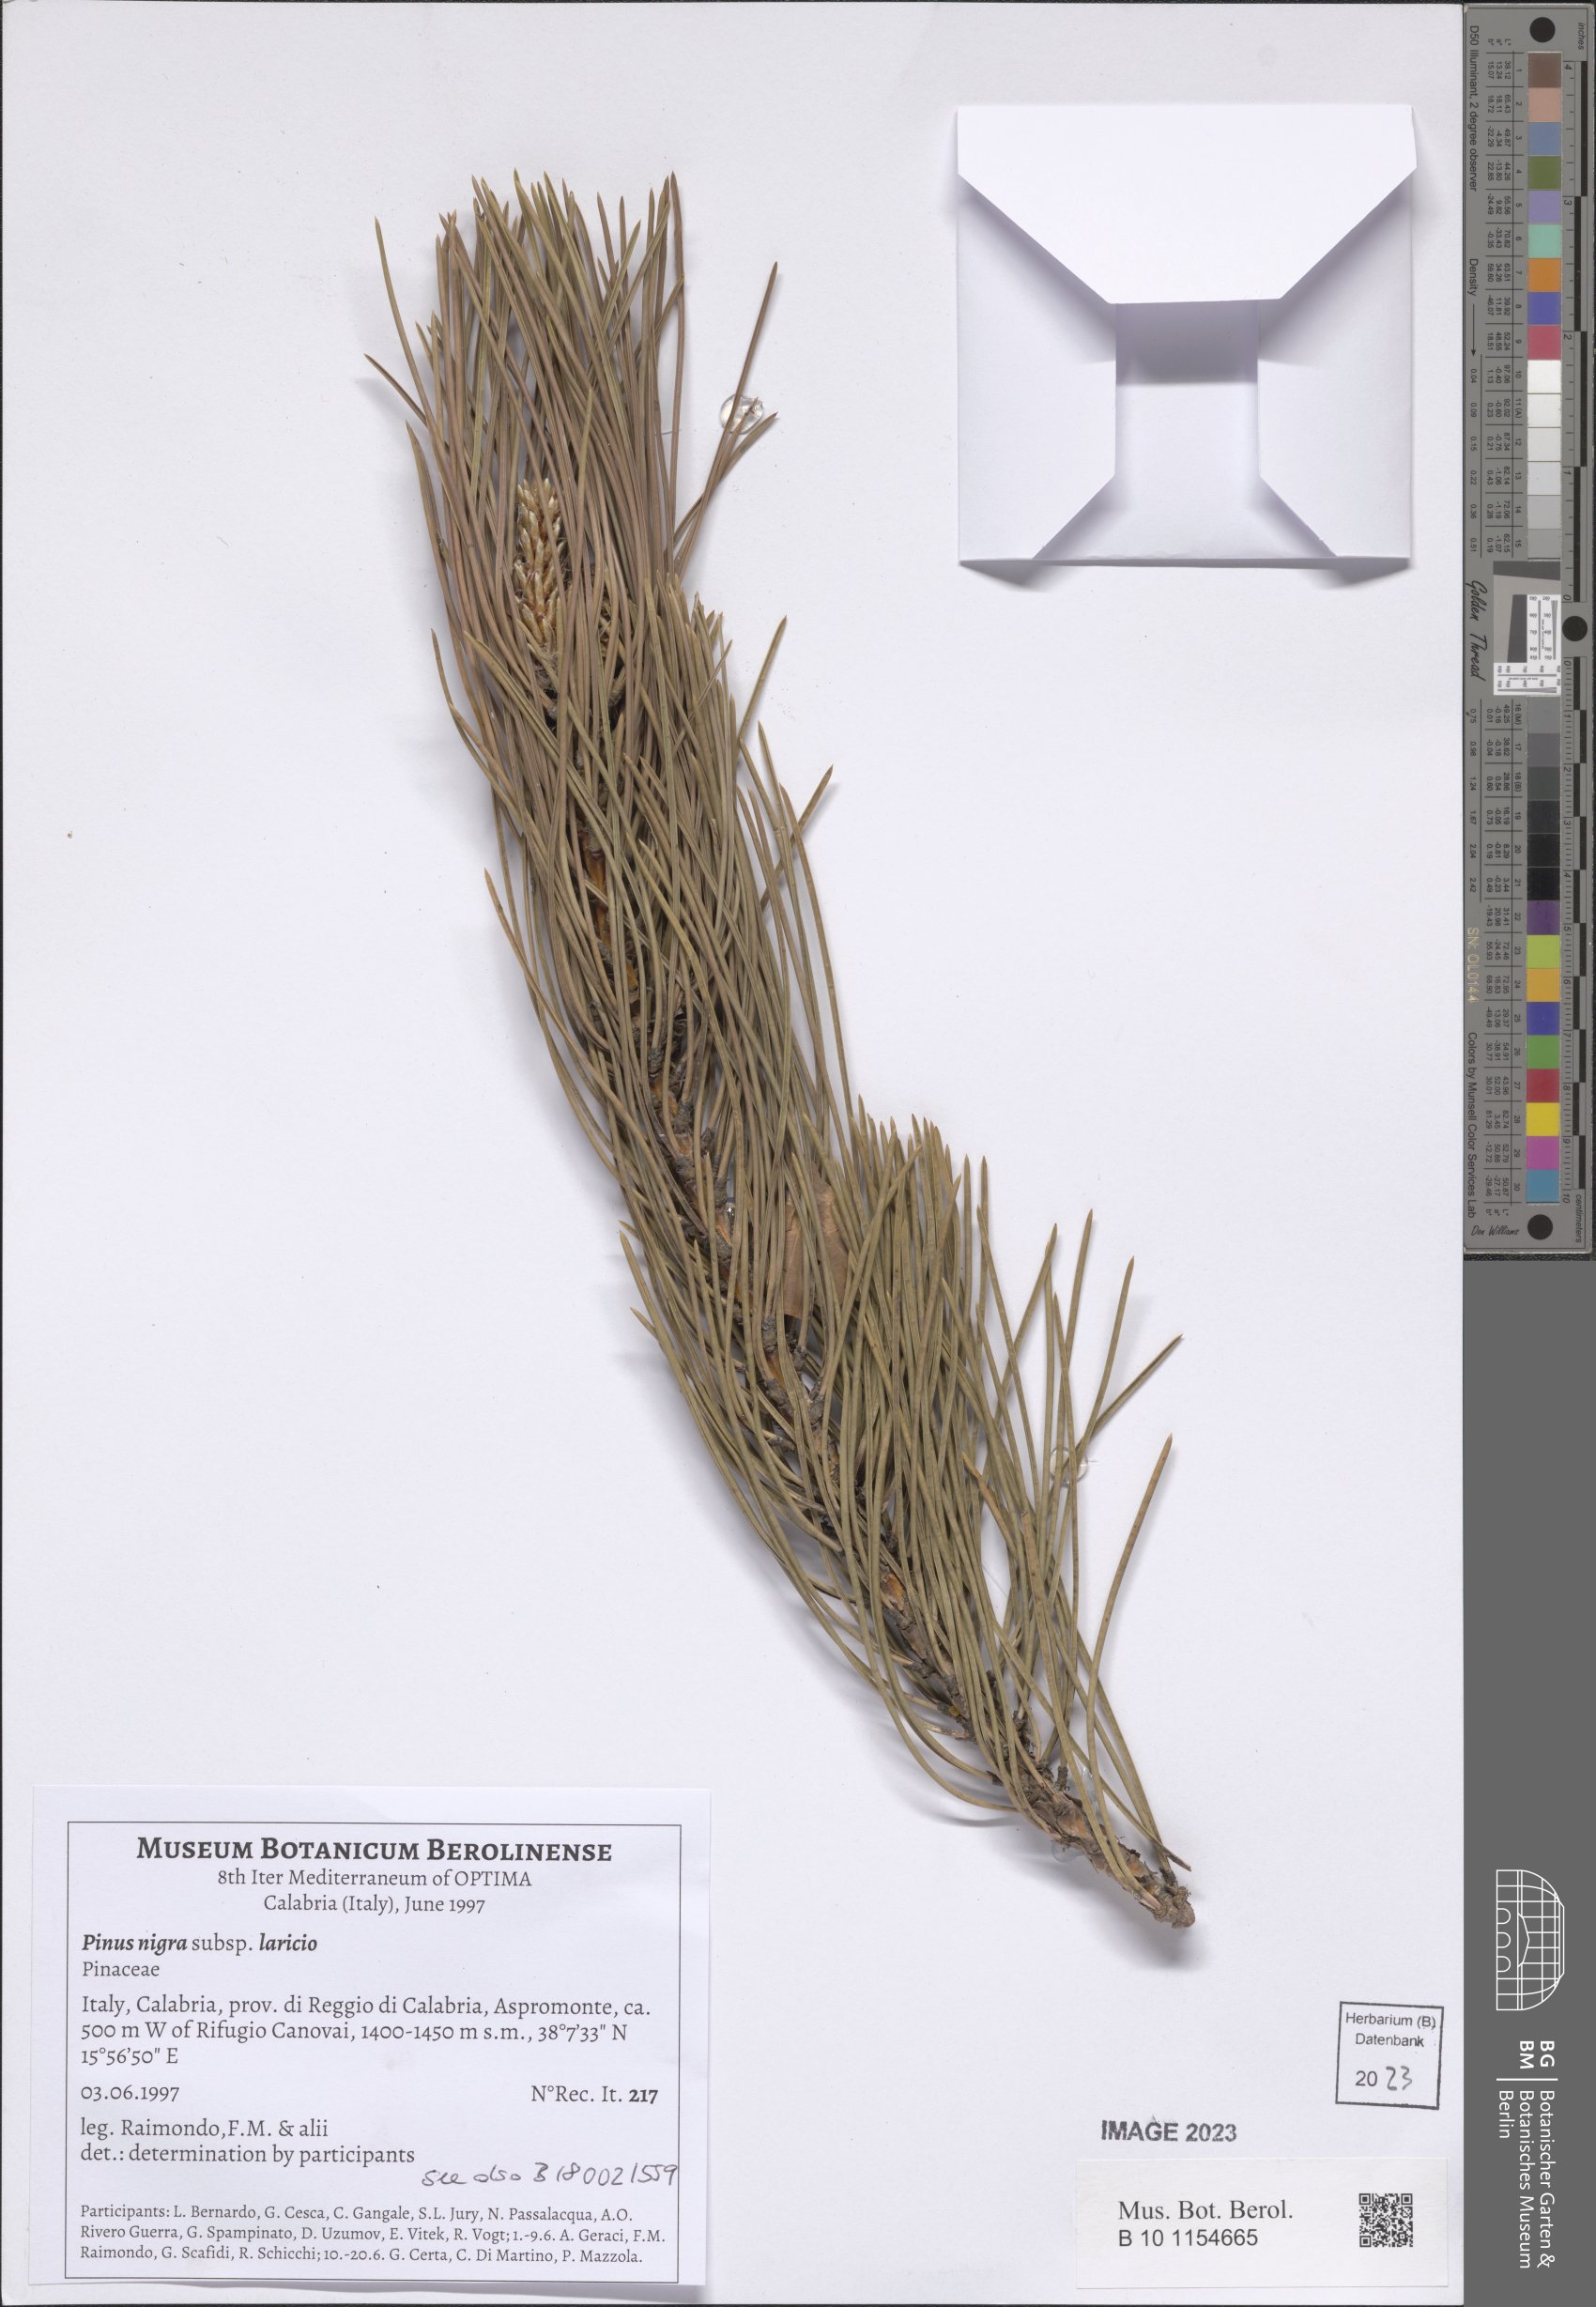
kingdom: Plantae
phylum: Tracheophyta
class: Pinopsida
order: Pinales
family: Pinaceae
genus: Pinus
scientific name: Pinus nigra
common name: Austrian pine
